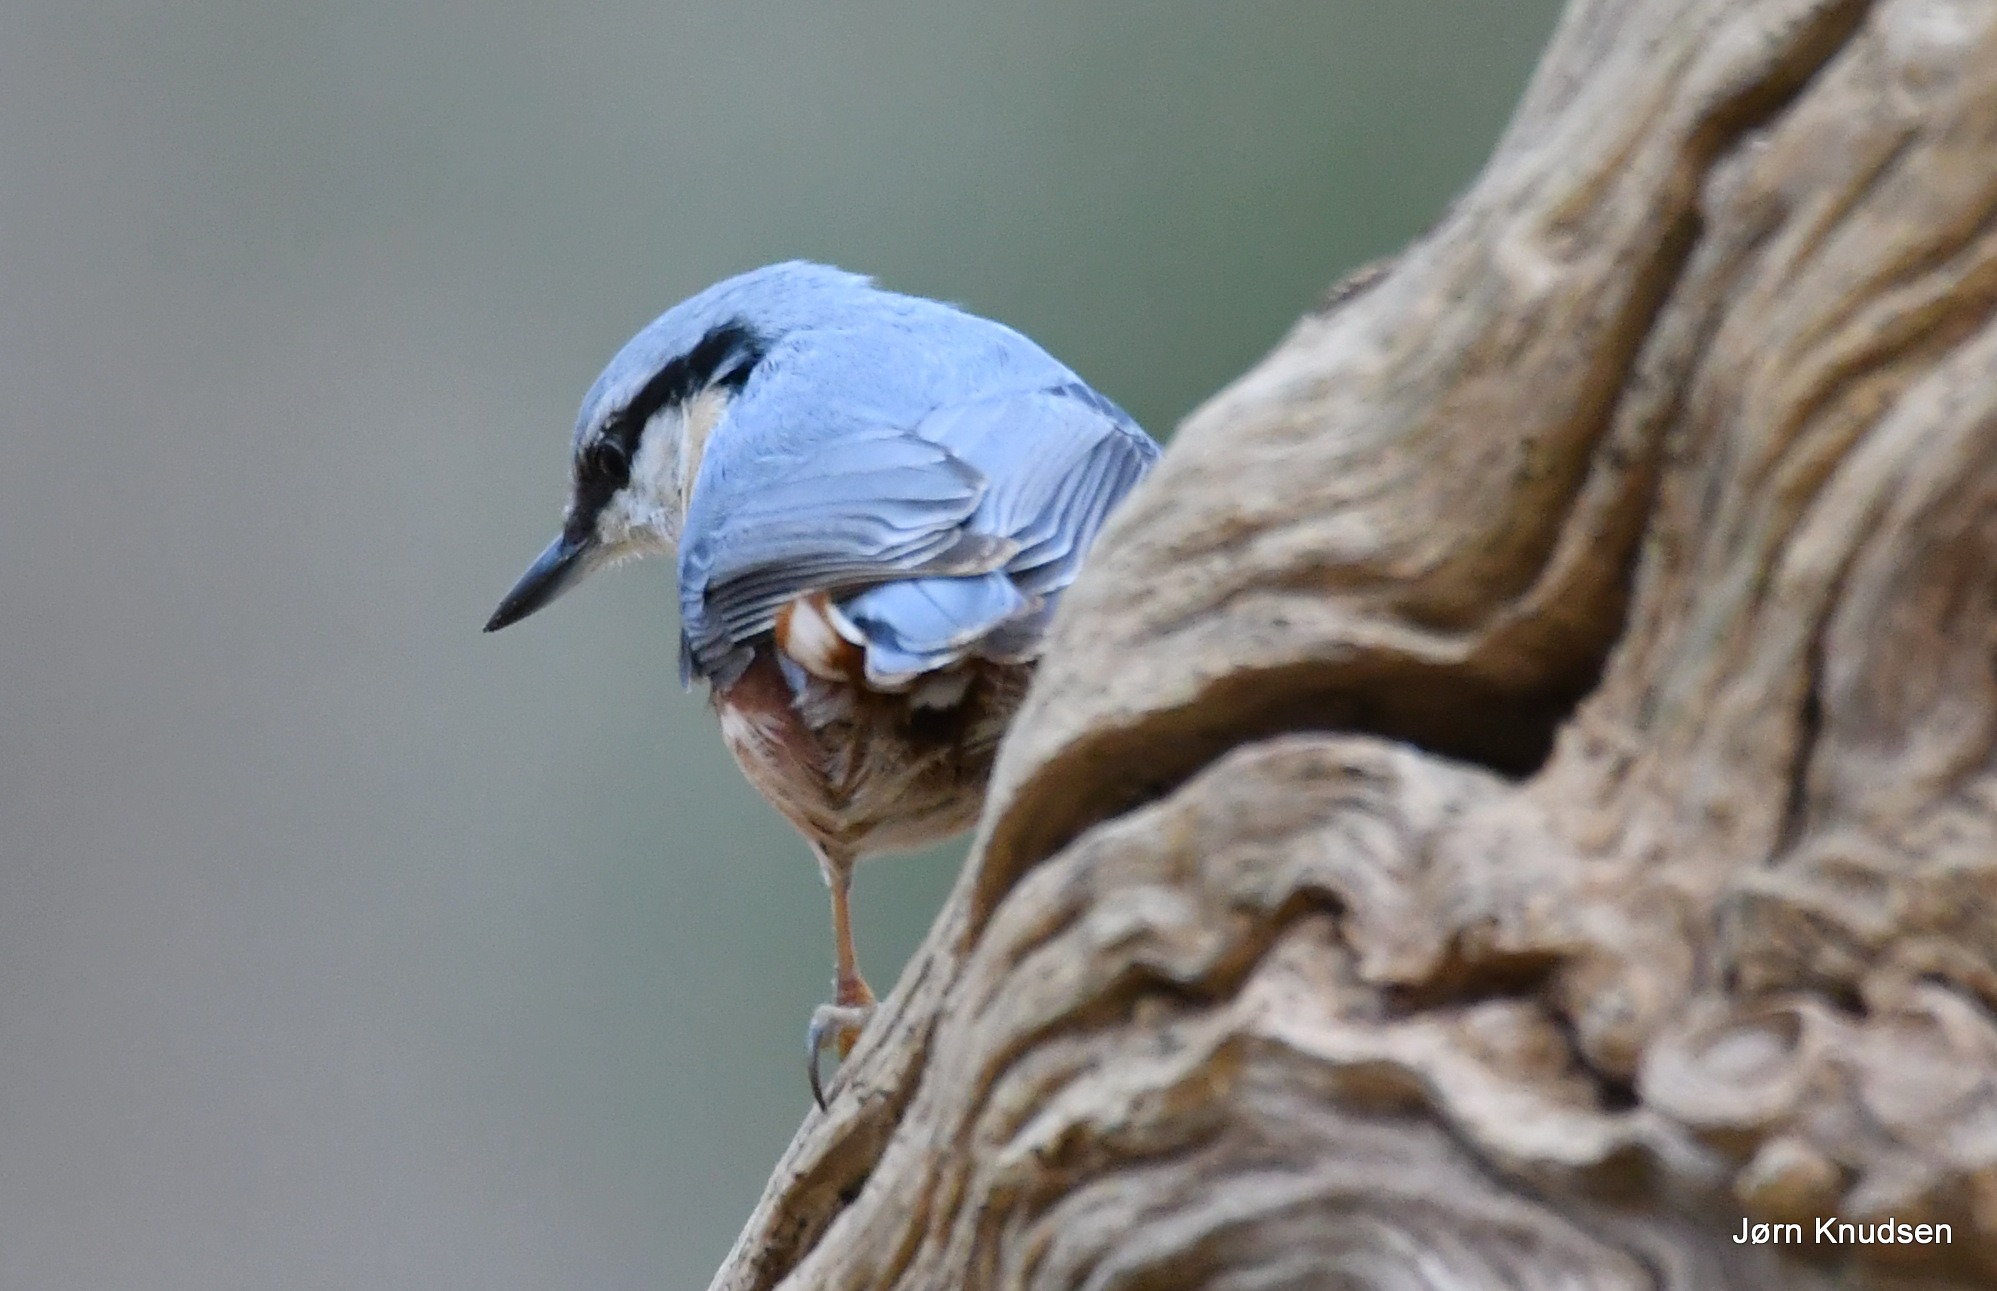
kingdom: Animalia
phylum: Chordata
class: Aves
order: Passeriformes
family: Sittidae
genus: Sitta
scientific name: Sitta europaea
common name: Spætmejse
